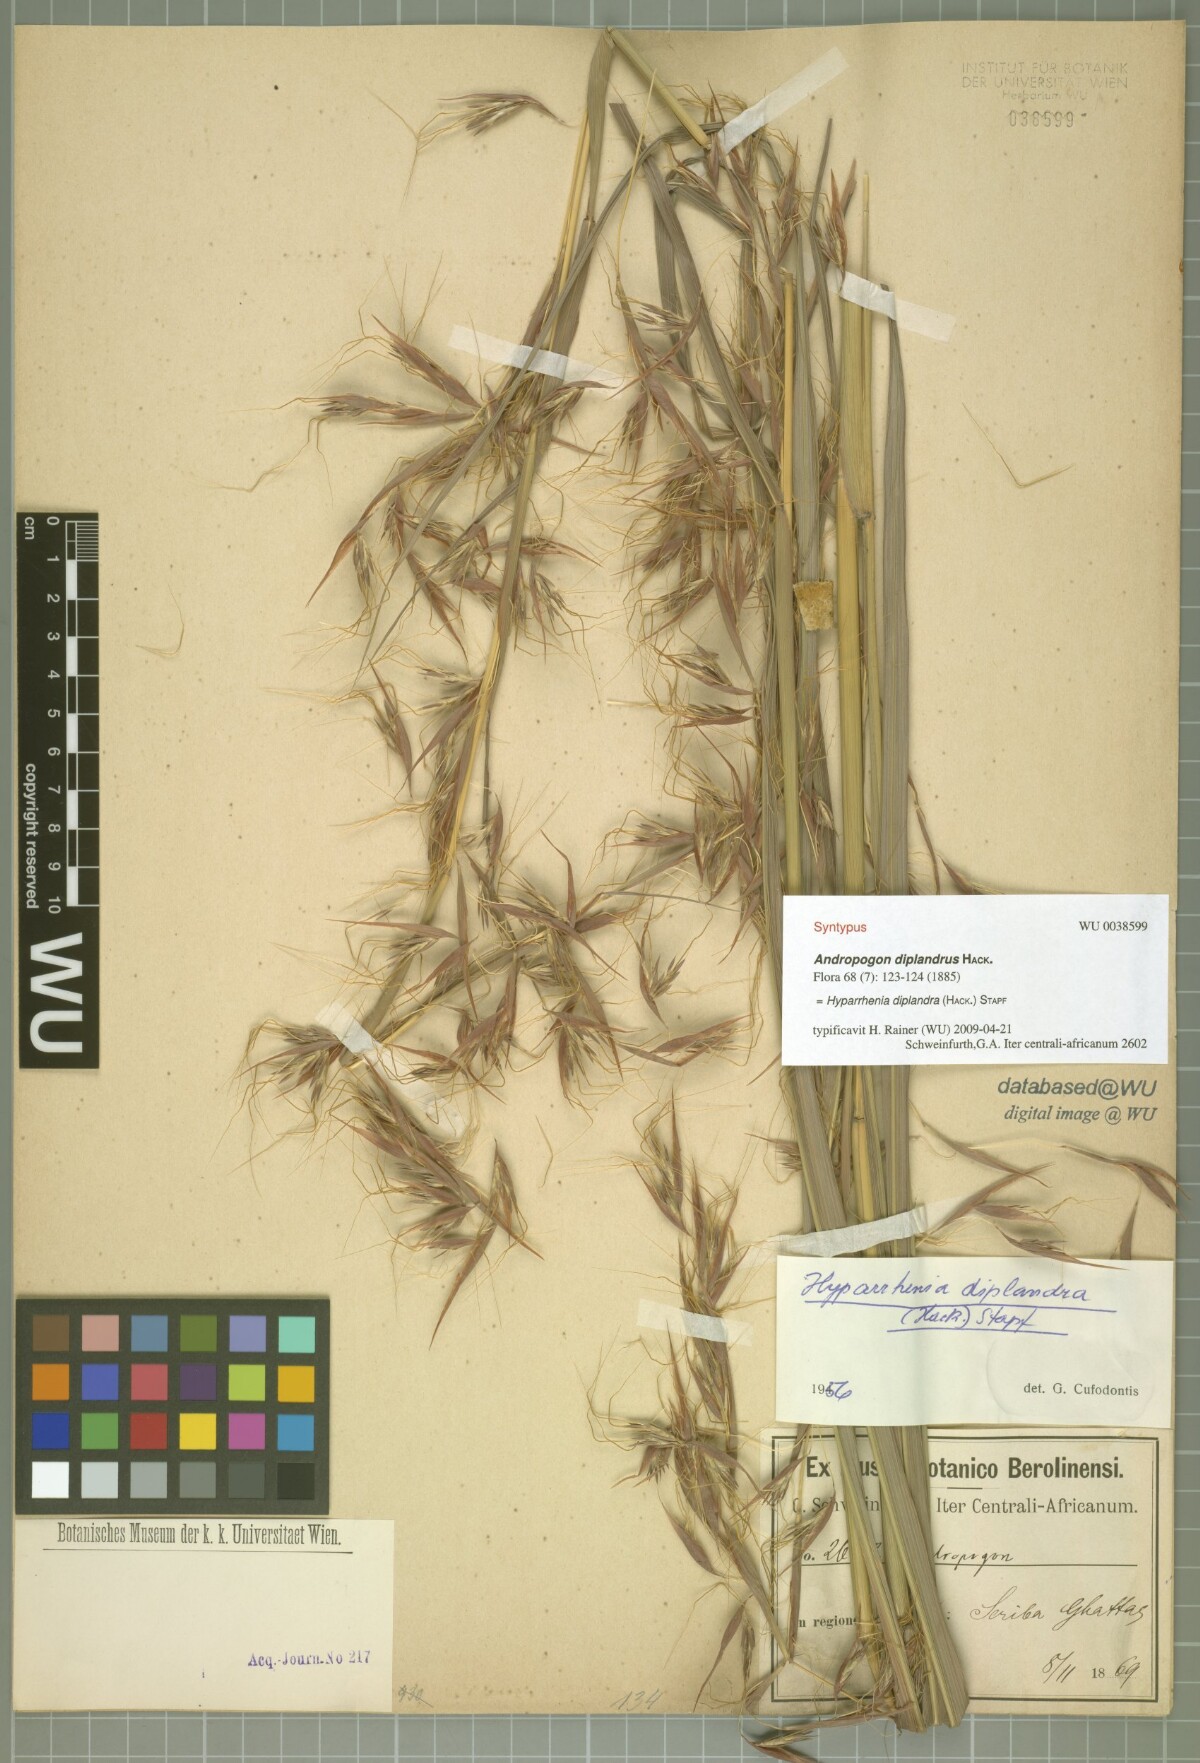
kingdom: Plantae
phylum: Tracheophyta
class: Liliopsida
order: Poales
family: Poaceae
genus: Hyparrhenia
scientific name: Hyparrhenia diplandra
